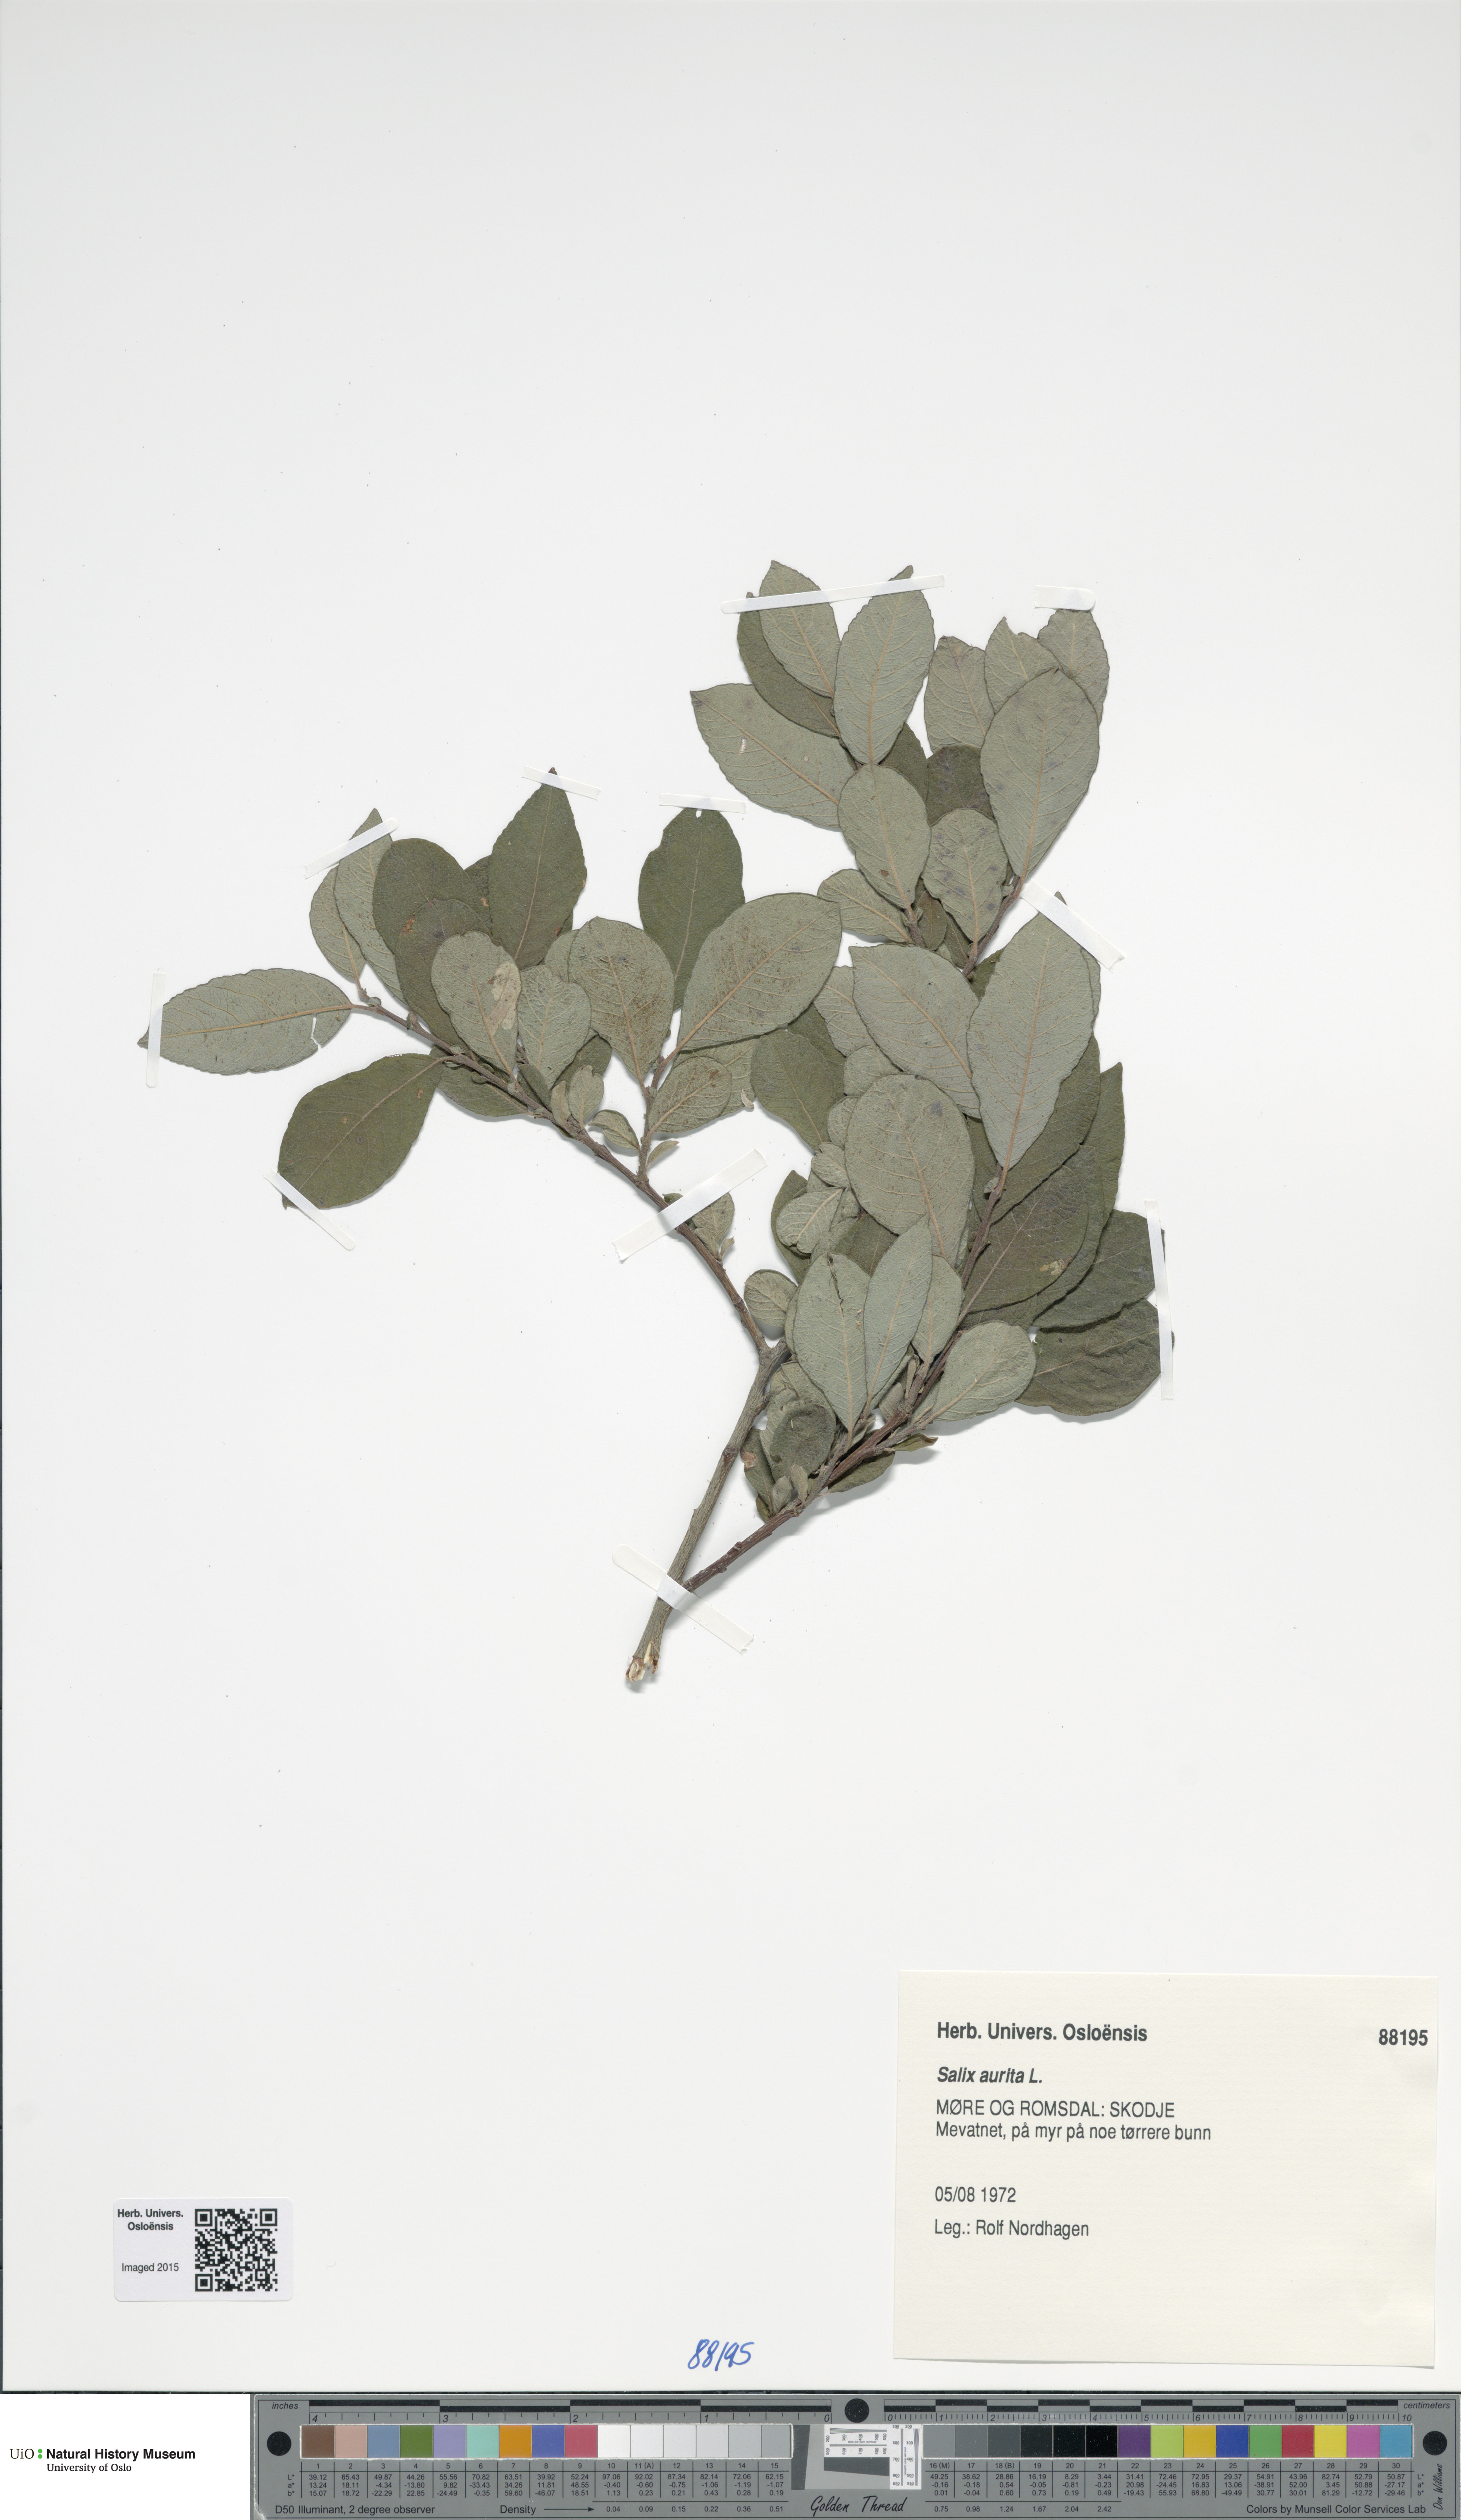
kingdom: Plantae
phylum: Tracheophyta
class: Magnoliopsida
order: Malpighiales
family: Salicaceae
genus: Salix
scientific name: Salix aurita
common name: Eared willow
